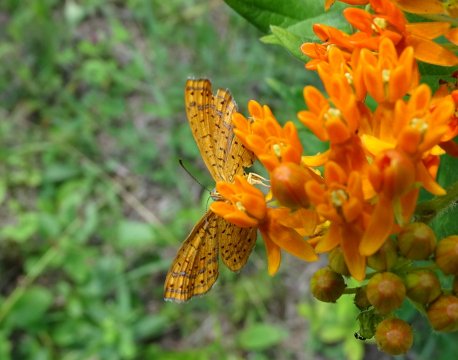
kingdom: Animalia
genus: Calephelis
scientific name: Calephelis borealis
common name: Northern Metalmark
